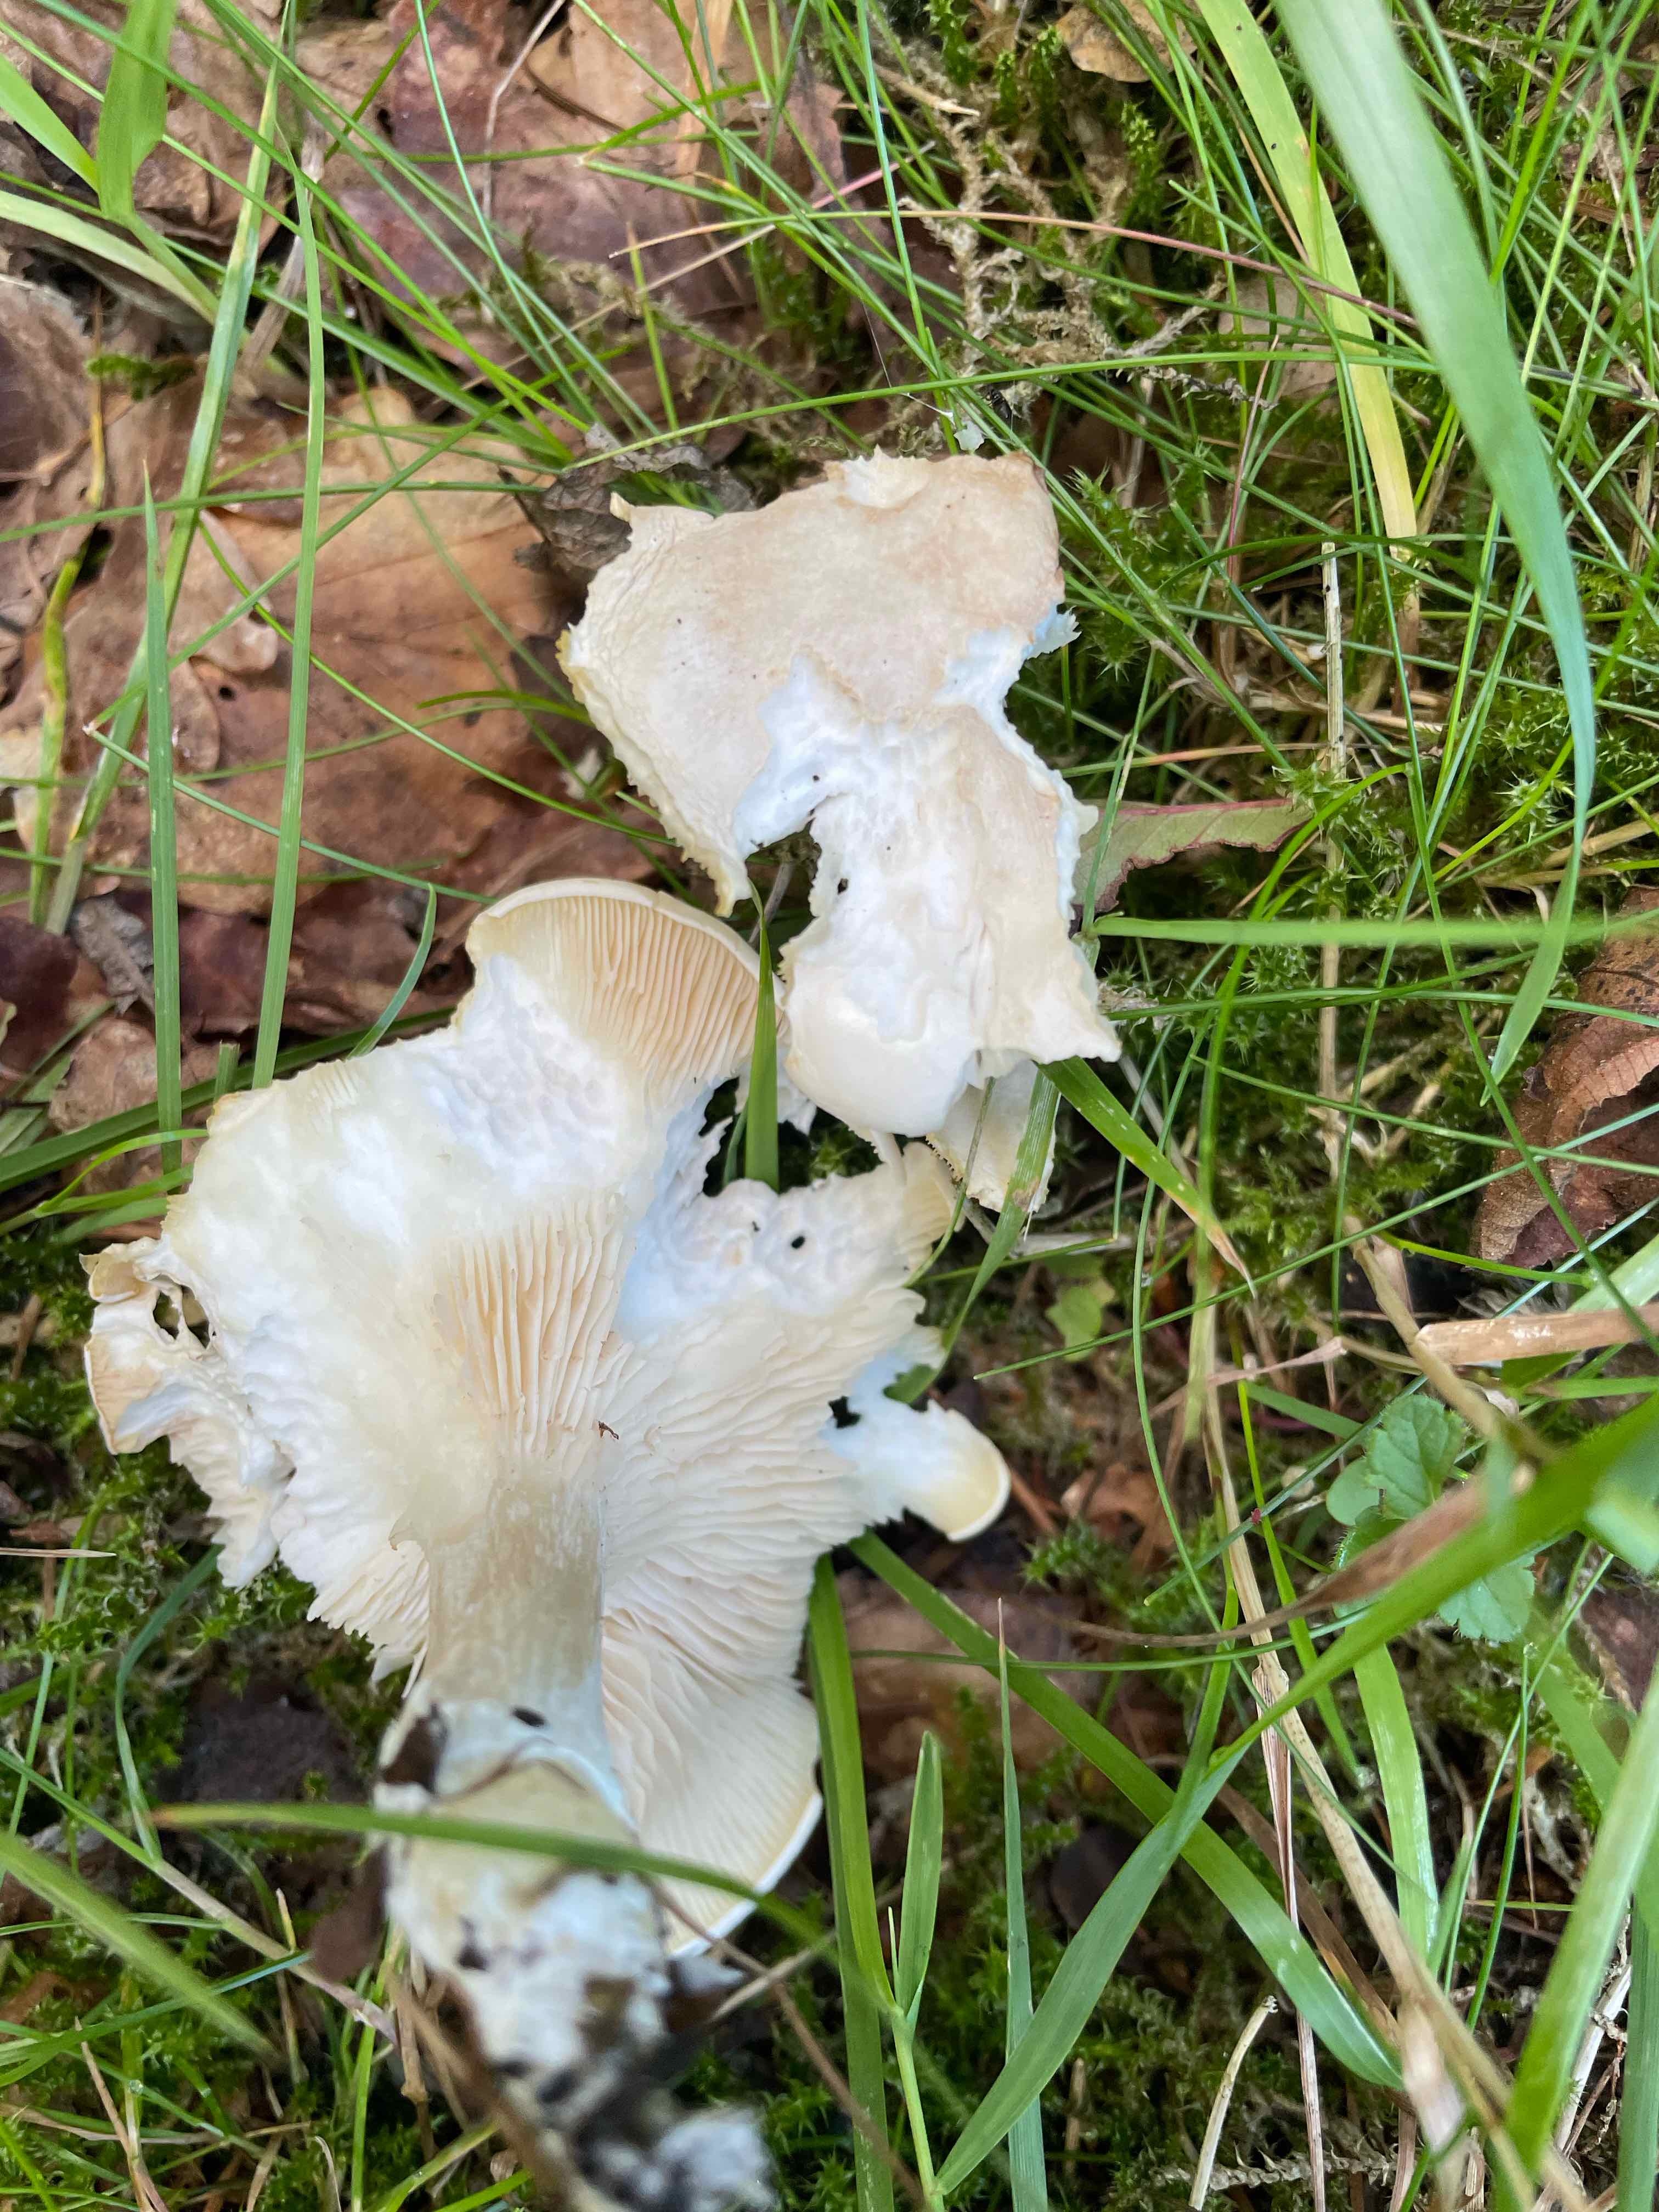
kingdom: Fungi
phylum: Basidiomycota
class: Agaricomycetes
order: Agaricales
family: Entolomataceae
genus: Clitopilus
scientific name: Clitopilus prunulus
